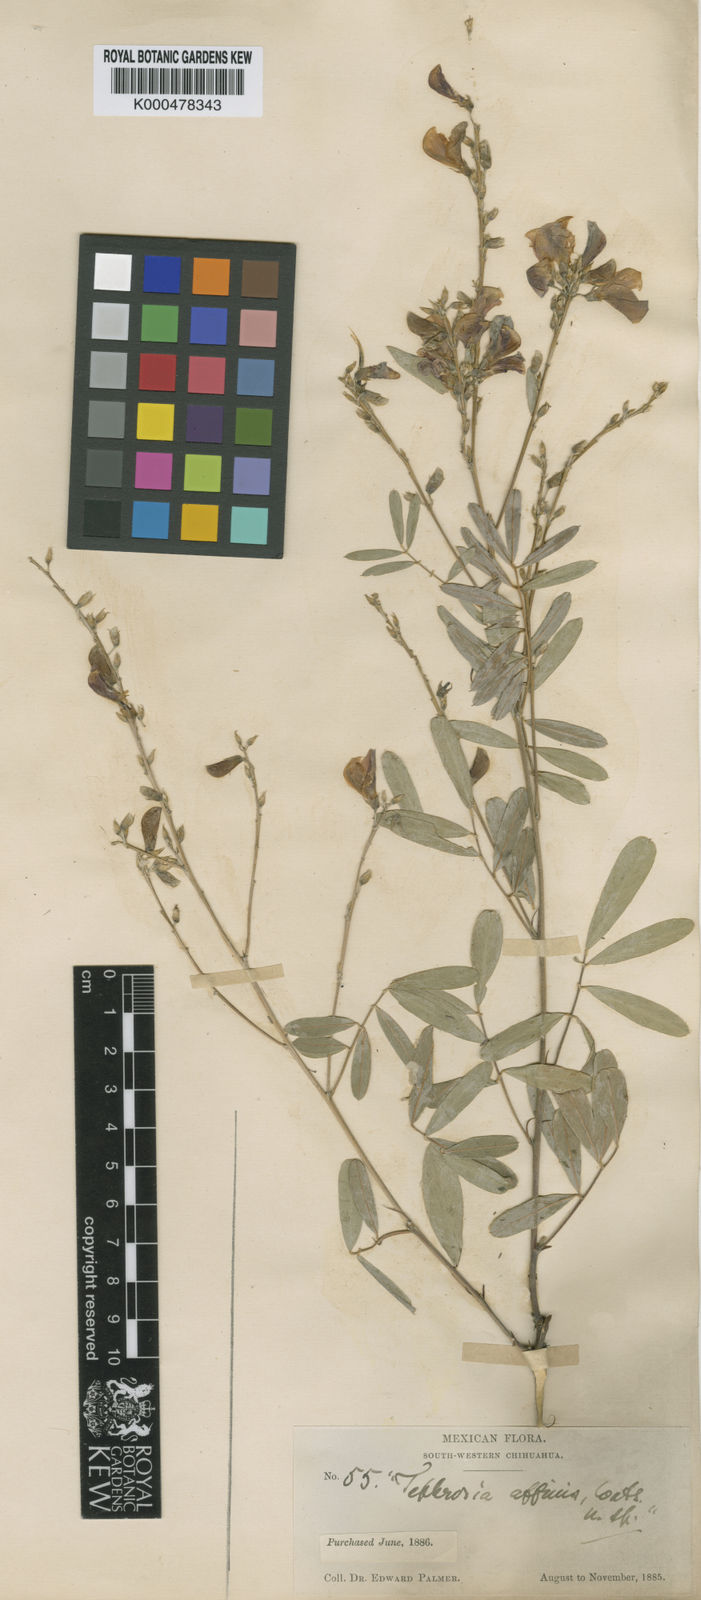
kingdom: Plantae
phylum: Tracheophyta
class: Magnoliopsida
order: Fabales
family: Fabaceae
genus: Tephrosia
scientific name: Tephrosia leiocarpa
